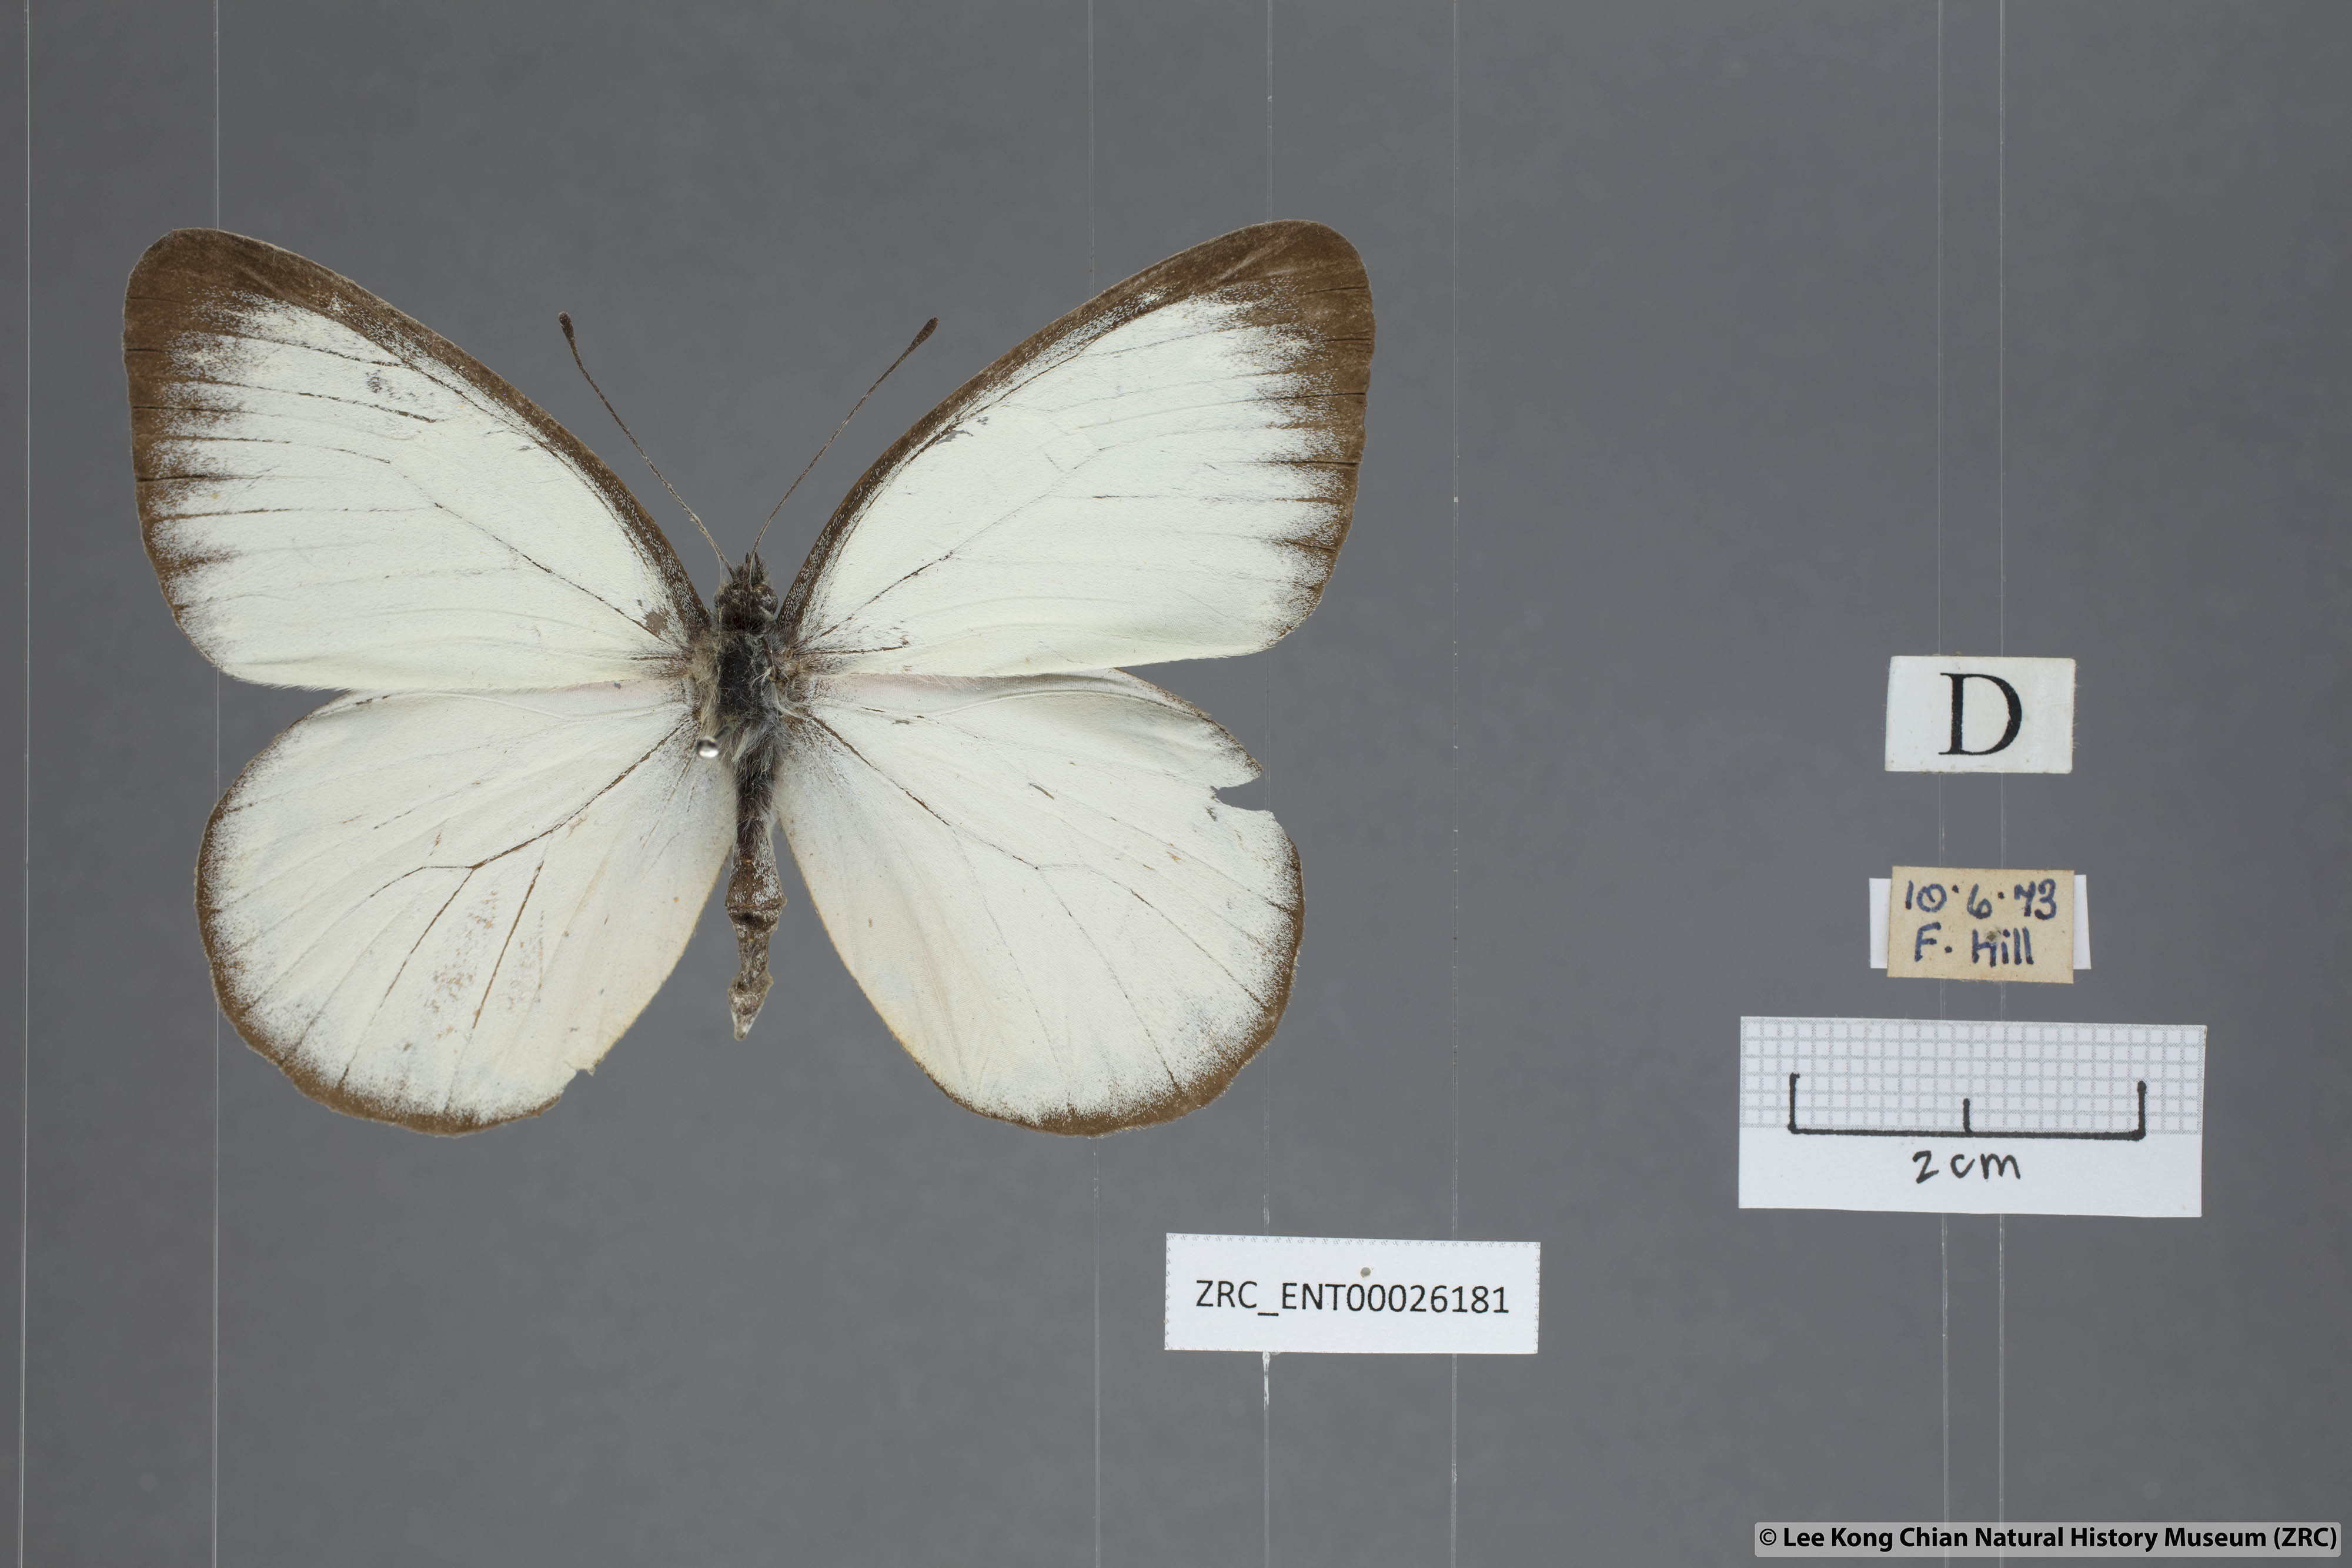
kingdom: Animalia
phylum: Arthropoda
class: Insecta
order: Lepidoptera
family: Pieridae
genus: Delias
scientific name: Delias descombesi
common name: Red-spot jezebel
